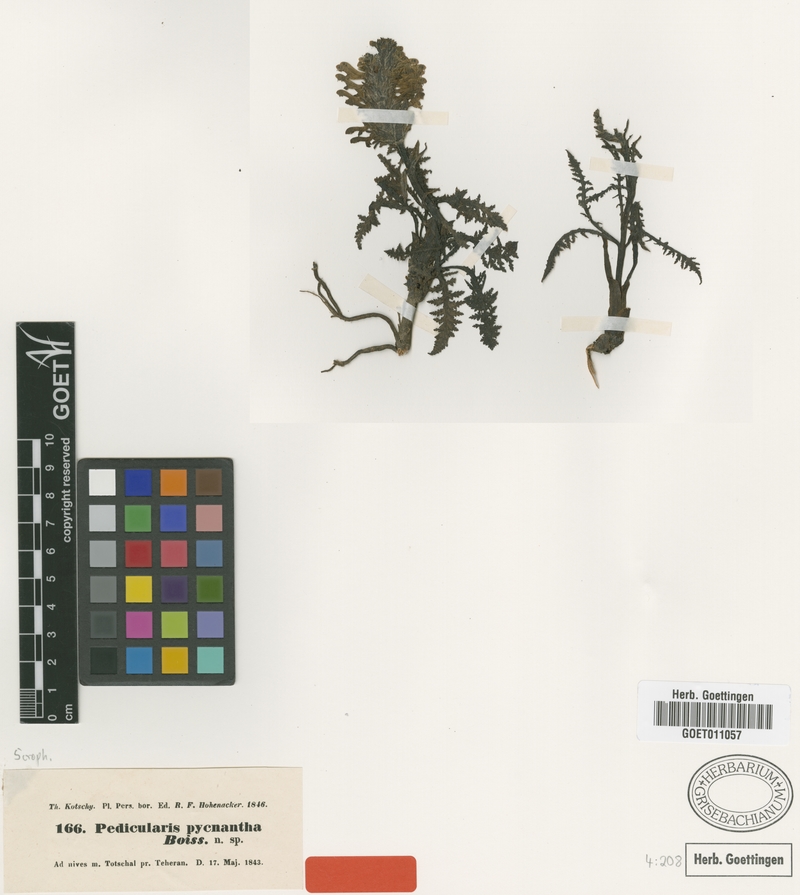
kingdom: Plantae
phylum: Tracheophyta
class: Magnoliopsida
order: Lamiales
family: Orobanchaceae
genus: Pedicularis
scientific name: Pedicularis pycnantha
